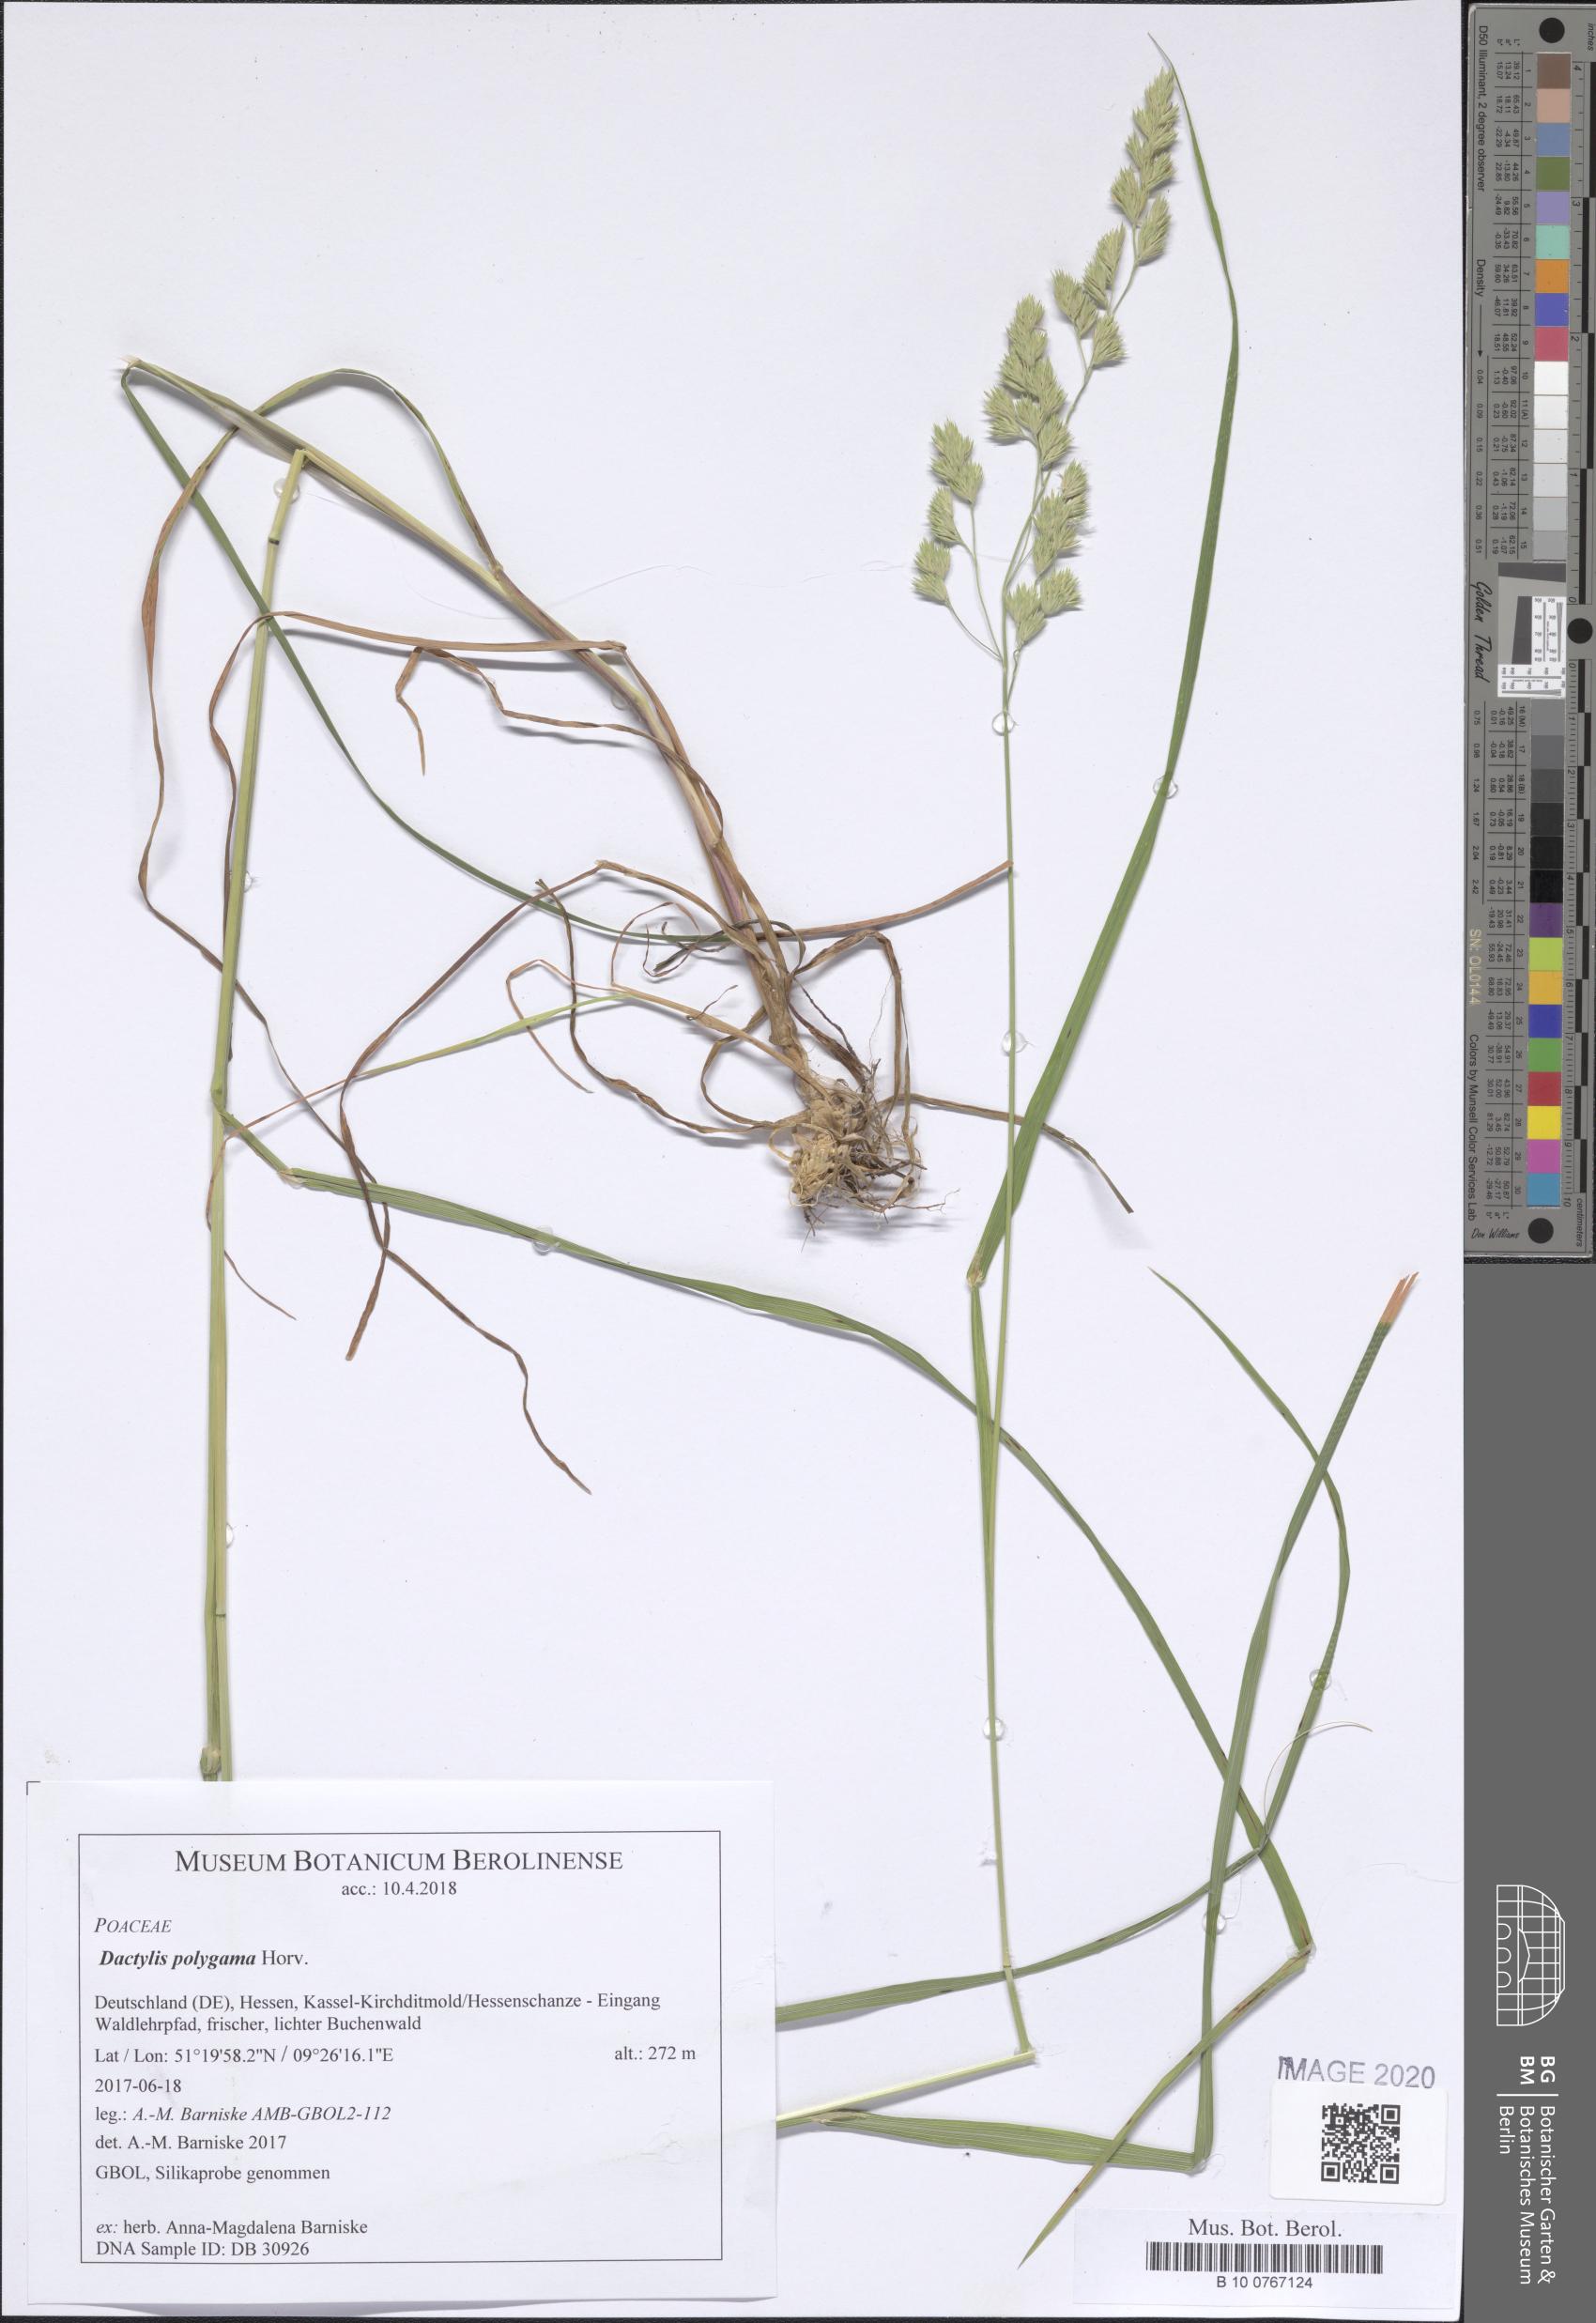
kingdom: Plantae
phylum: Tracheophyta
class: Liliopsida
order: Poales
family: Poaceae
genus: Dactylis
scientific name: Dactylis glomerata
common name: Orchardgrass
